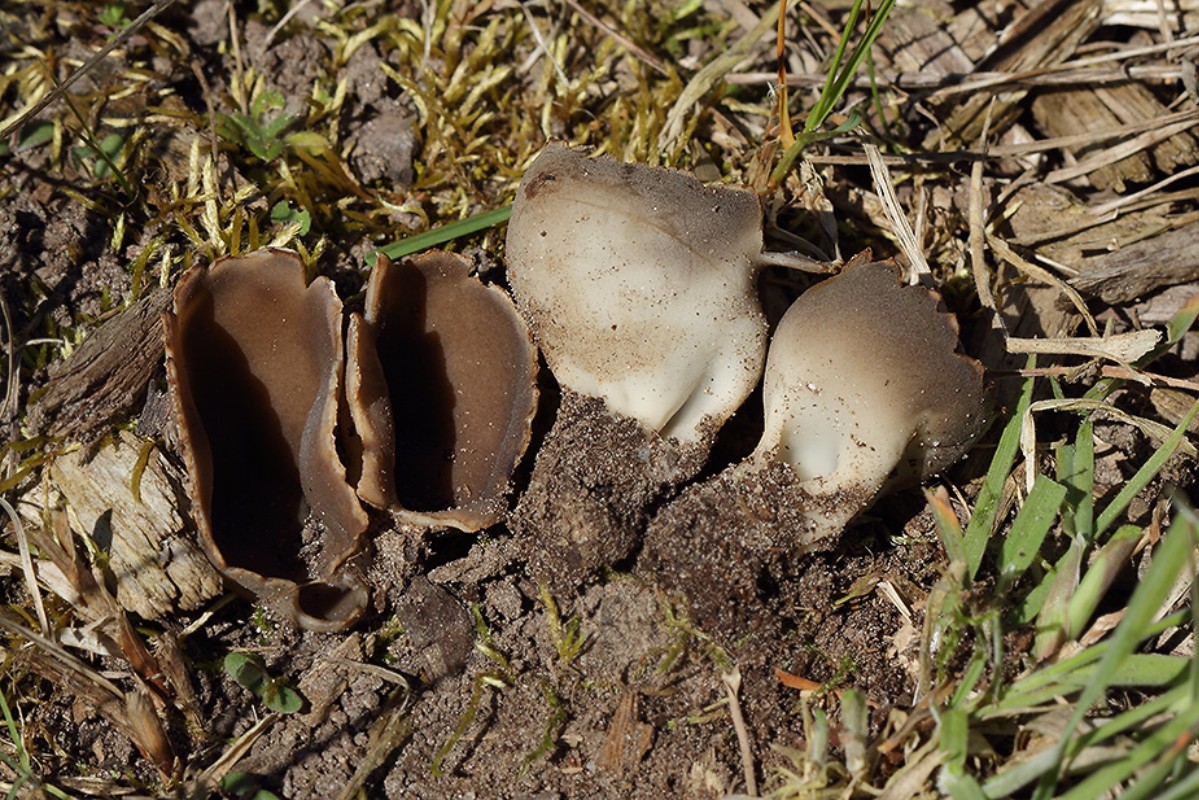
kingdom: Fungi
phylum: Ascomycota
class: Pezizomycetes
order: Pezizales
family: Helvellaceae
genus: Dissingia
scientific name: Dissingia leucomelaena
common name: sorthvid foldhat
